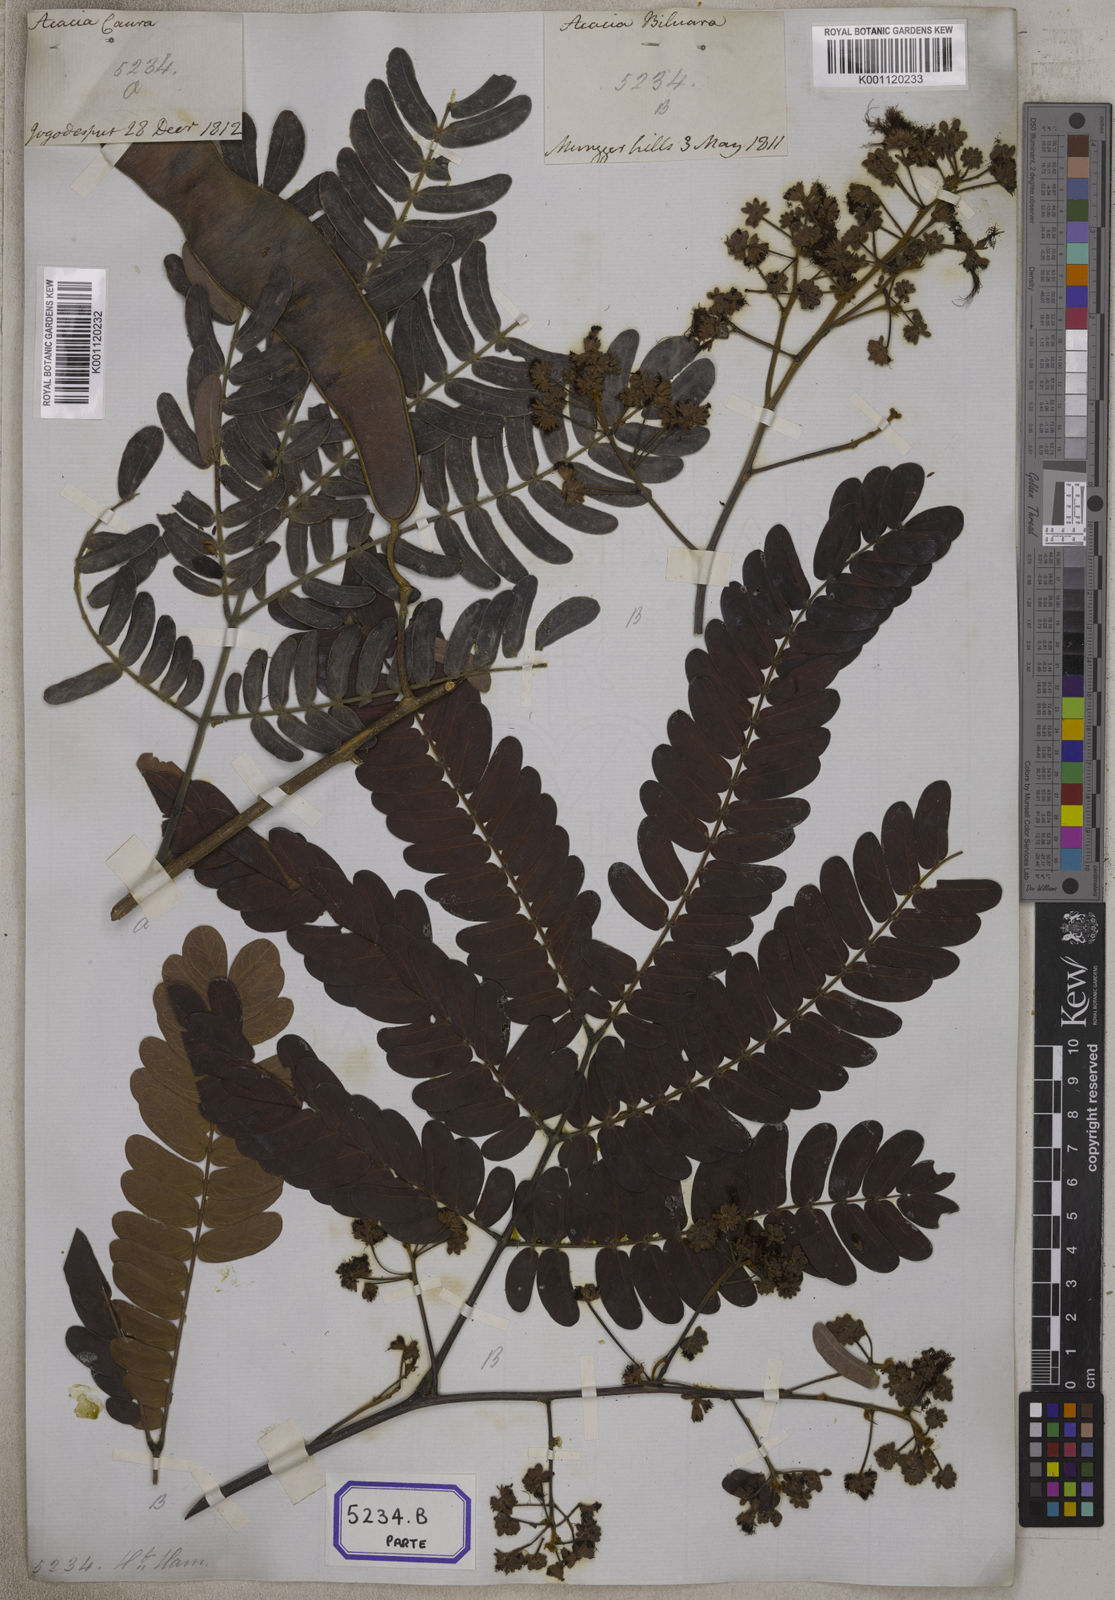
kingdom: Plantae
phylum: Tracheophyta
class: Magnoliopsida
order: Fabales
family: Fabaceae
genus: Albizia
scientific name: Albizia odoratissima
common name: Ceylon rosewood
